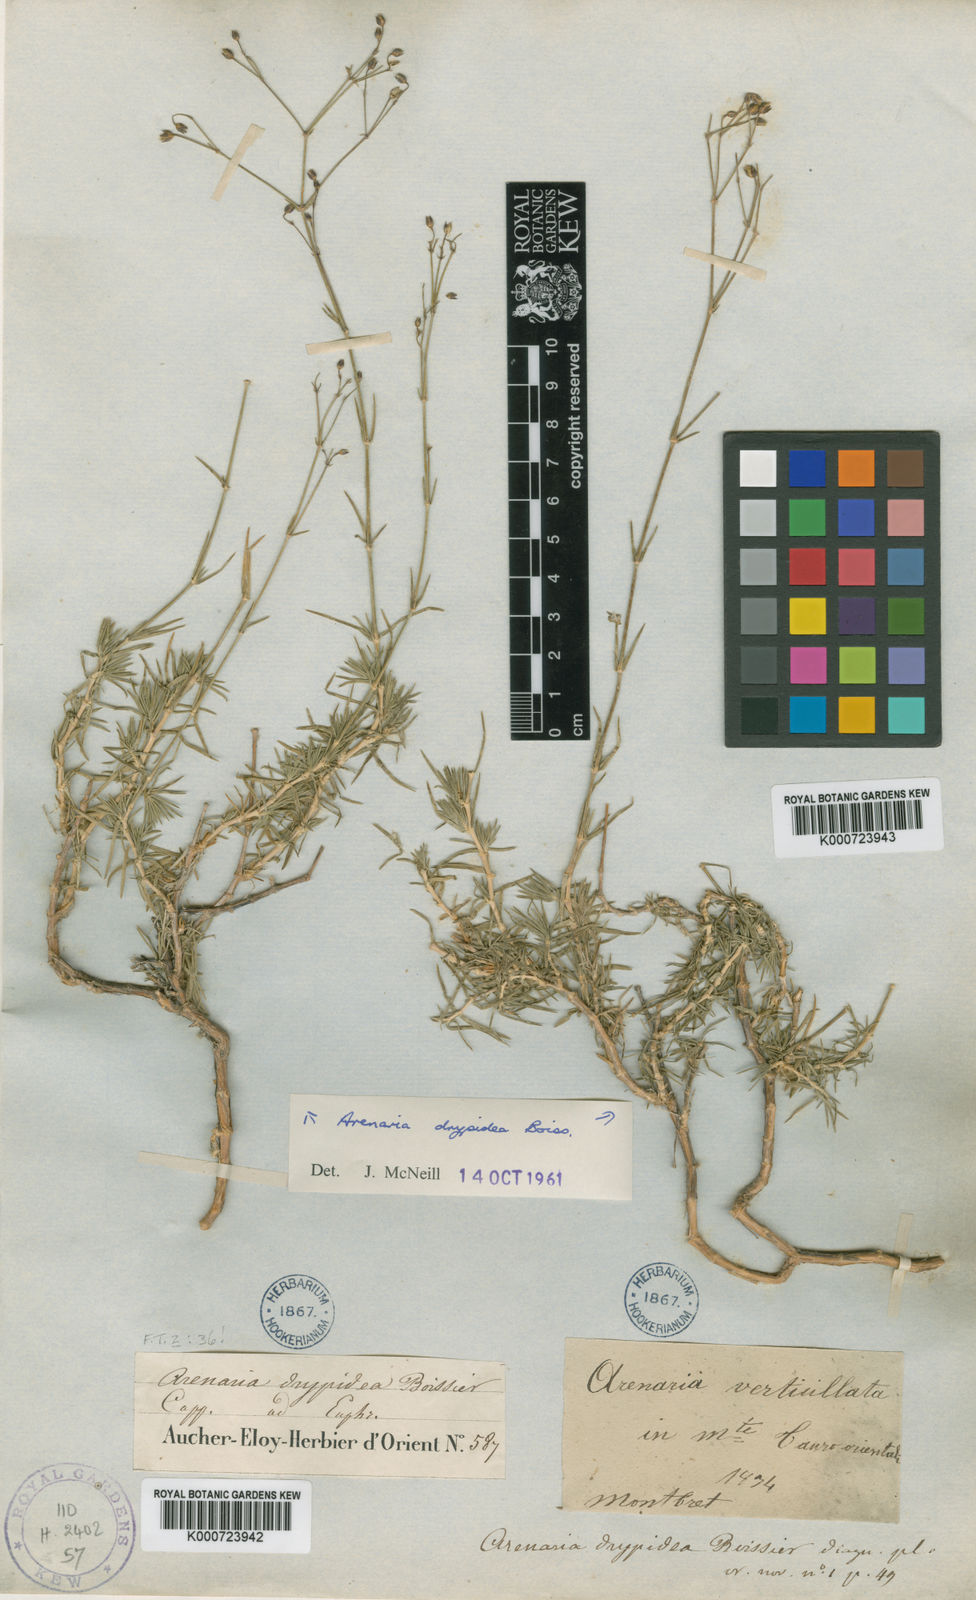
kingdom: Plantae
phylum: Tracheophyta
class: Magnoliopsida
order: Caryophyllales
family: Caryophyllaceae
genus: Eremogone
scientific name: Eremogone drypidea
